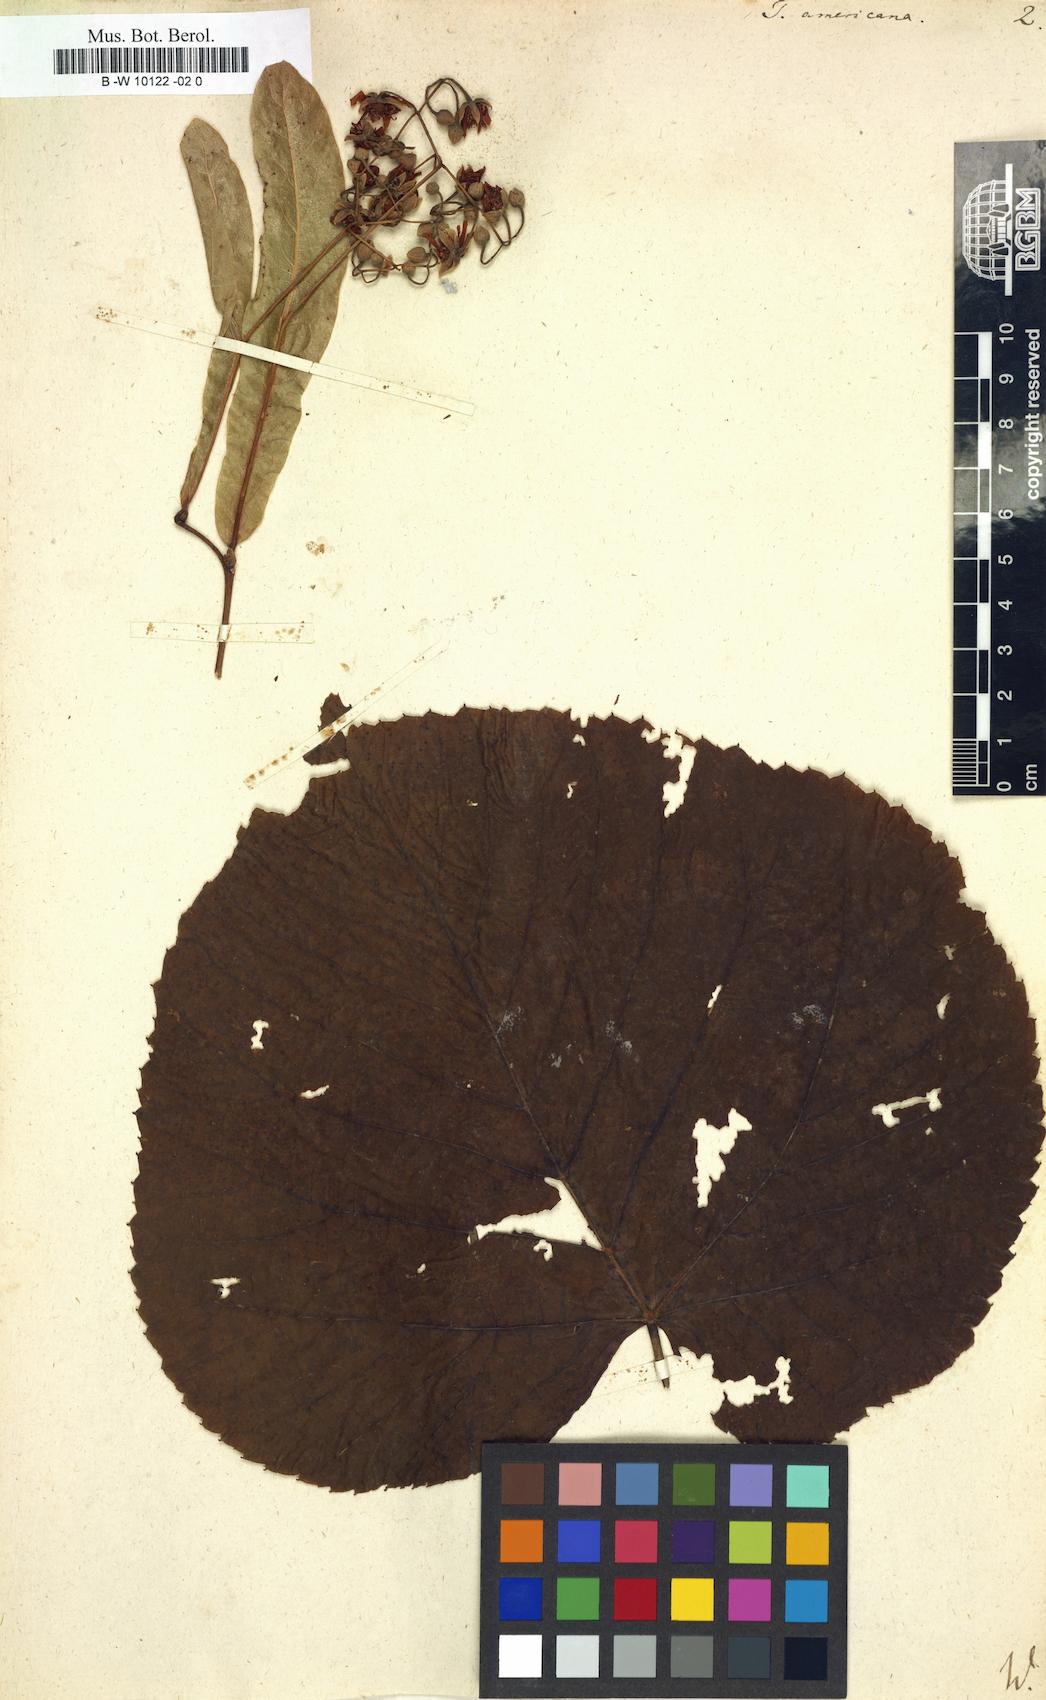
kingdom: Plantae
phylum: Tracheophyta
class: Magnoliopsida
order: Malvales
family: Malvaceae
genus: Tilia
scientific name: Tilia americana
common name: Basswood
